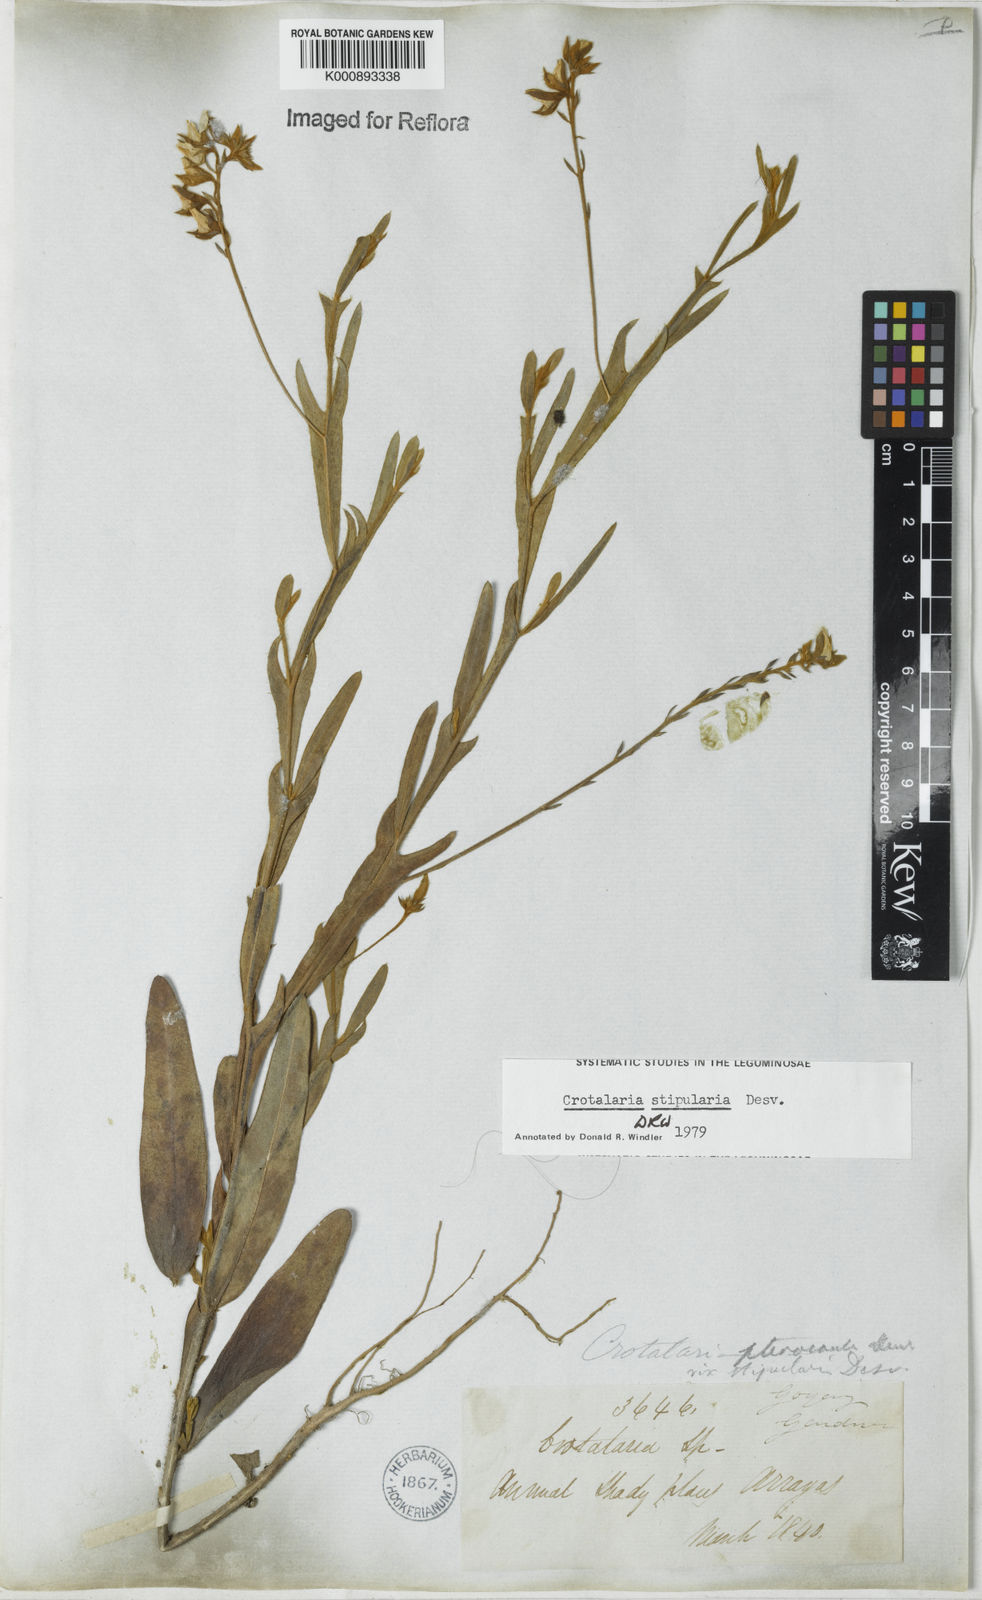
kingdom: Plantae
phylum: Tracheophyta
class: Magnoliopsida
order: Fabales
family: Fabaceae
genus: Crotalaria
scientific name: Crotalaria stipularia
